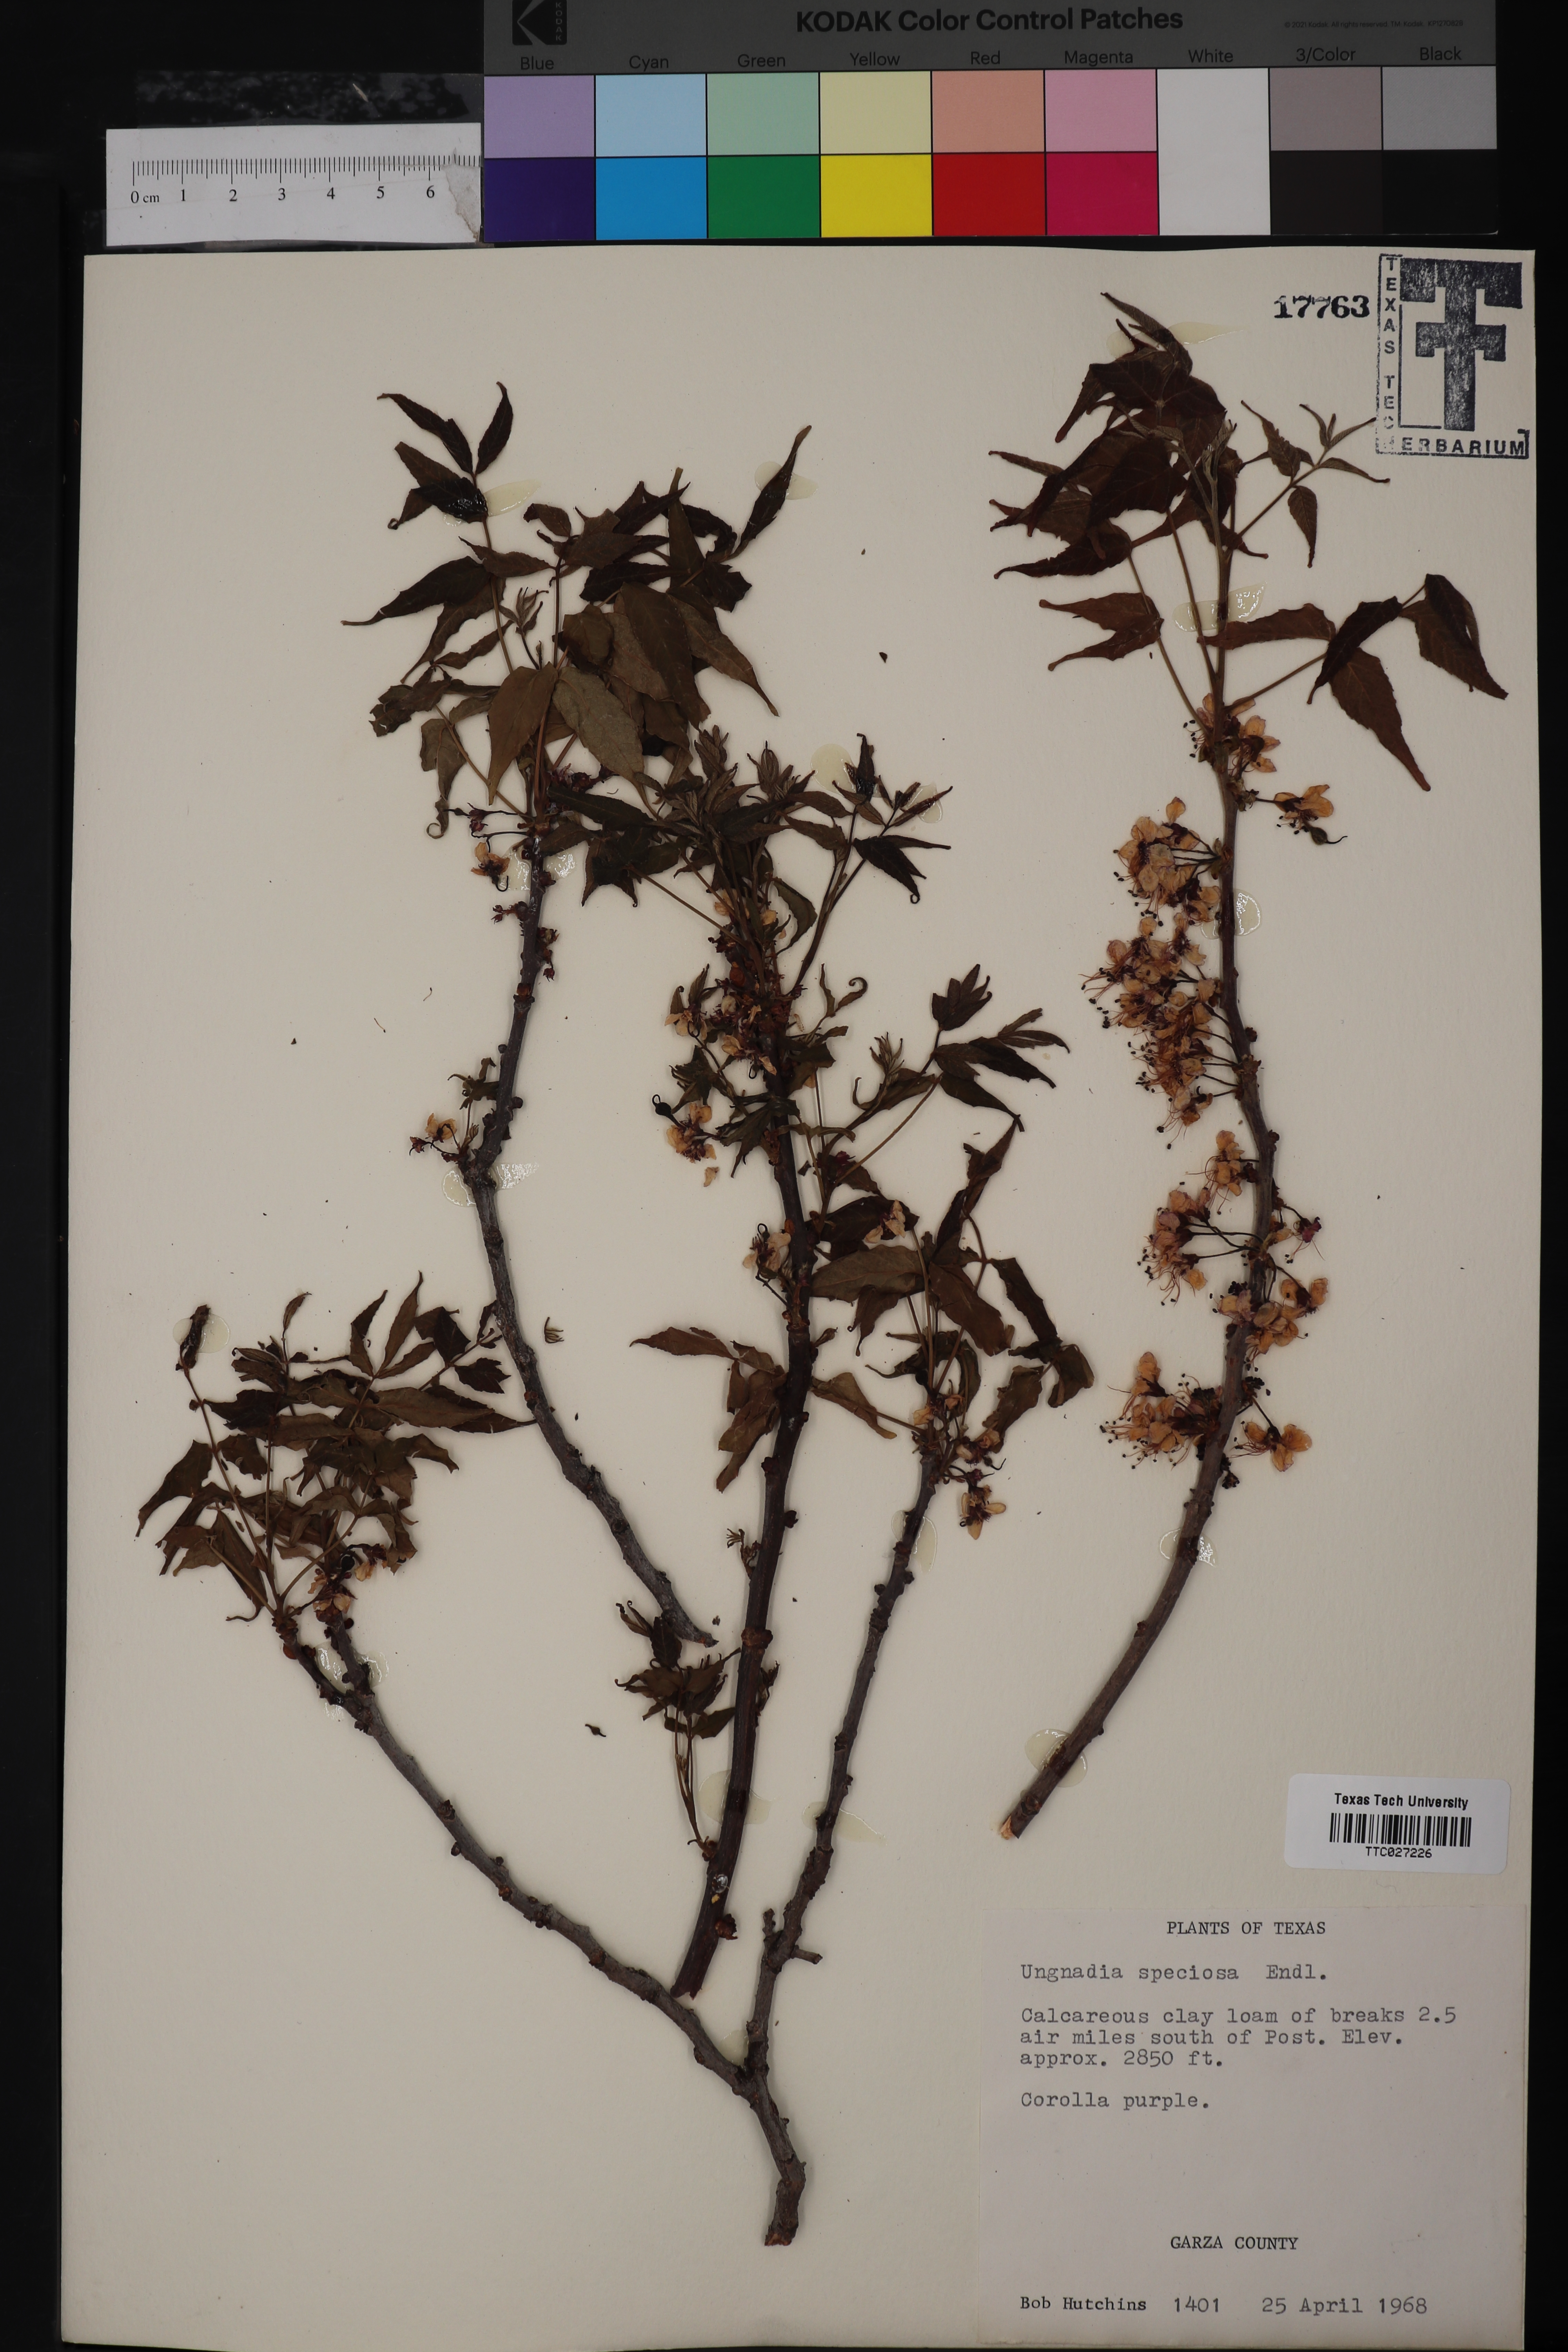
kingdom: Plantae
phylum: Tracheophyta
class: Magnoliopsida
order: Sapindales
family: Sapindaceae
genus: Ungnadia
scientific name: Ungnadia speciosa
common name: Texas-buckeye
